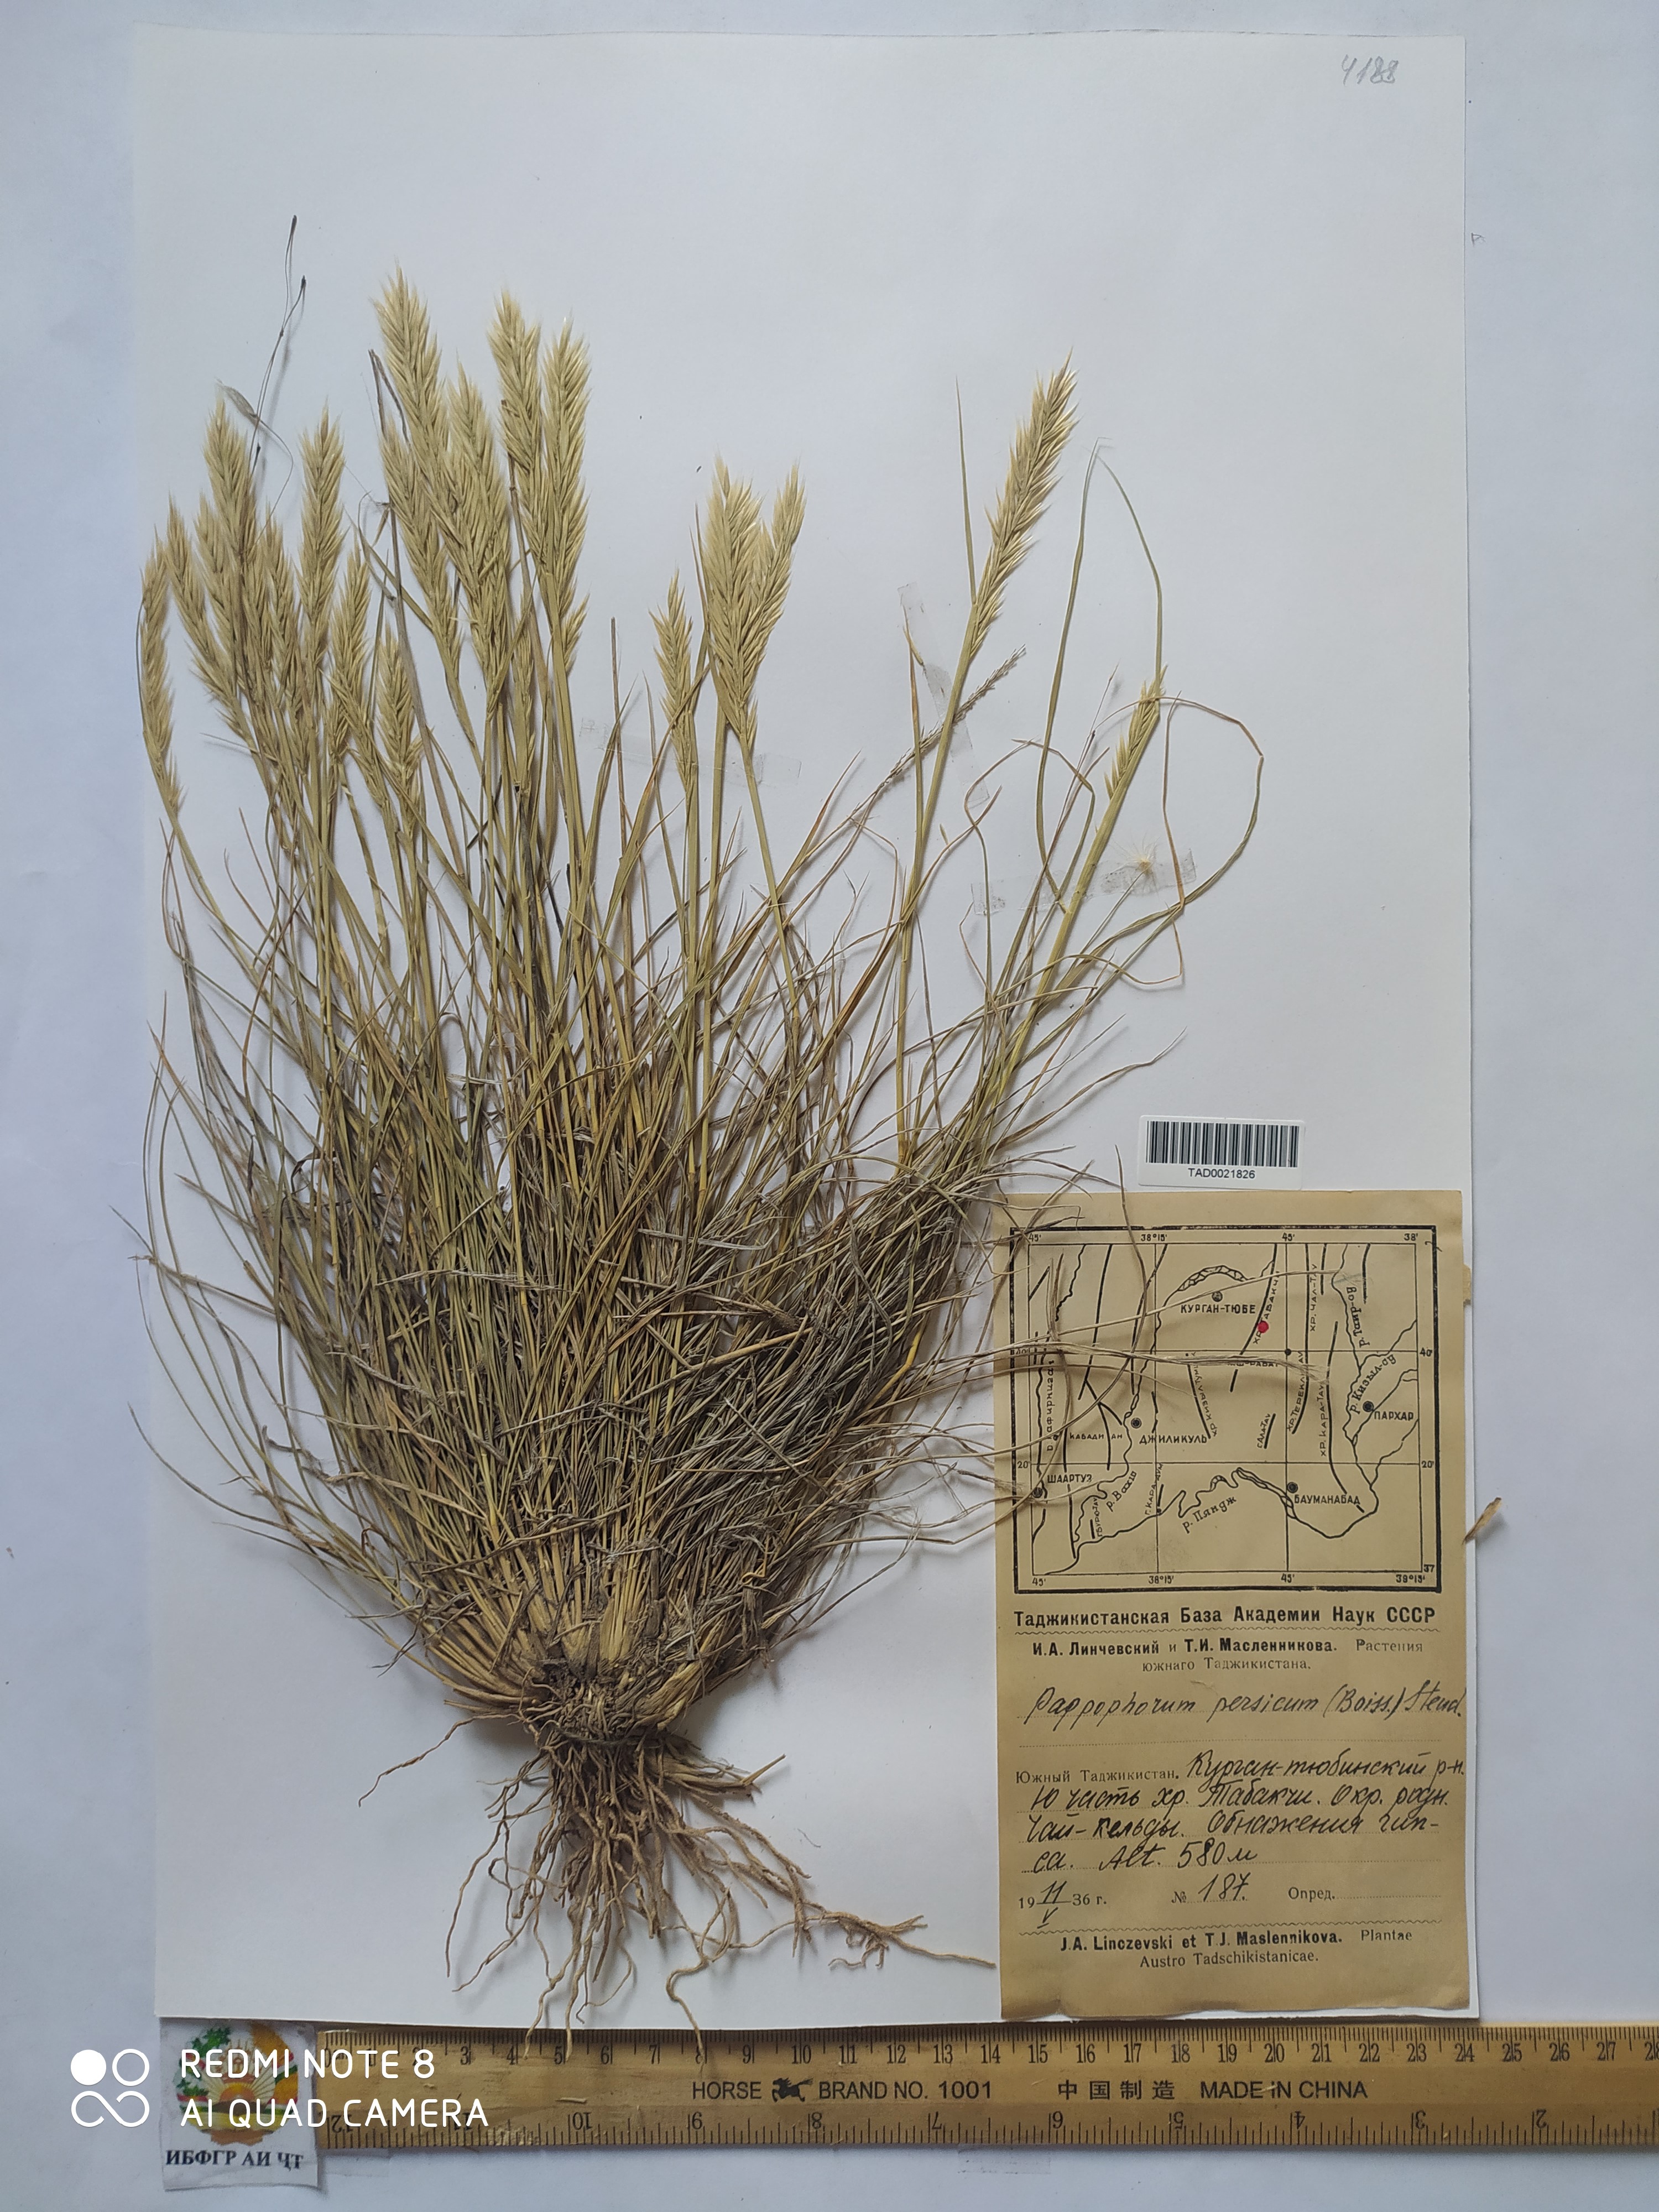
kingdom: Plantae
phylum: Tracheophyta
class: Liliopsida
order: Poales
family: Poaceae
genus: Enneapogon
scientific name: Enneapogon persicus
